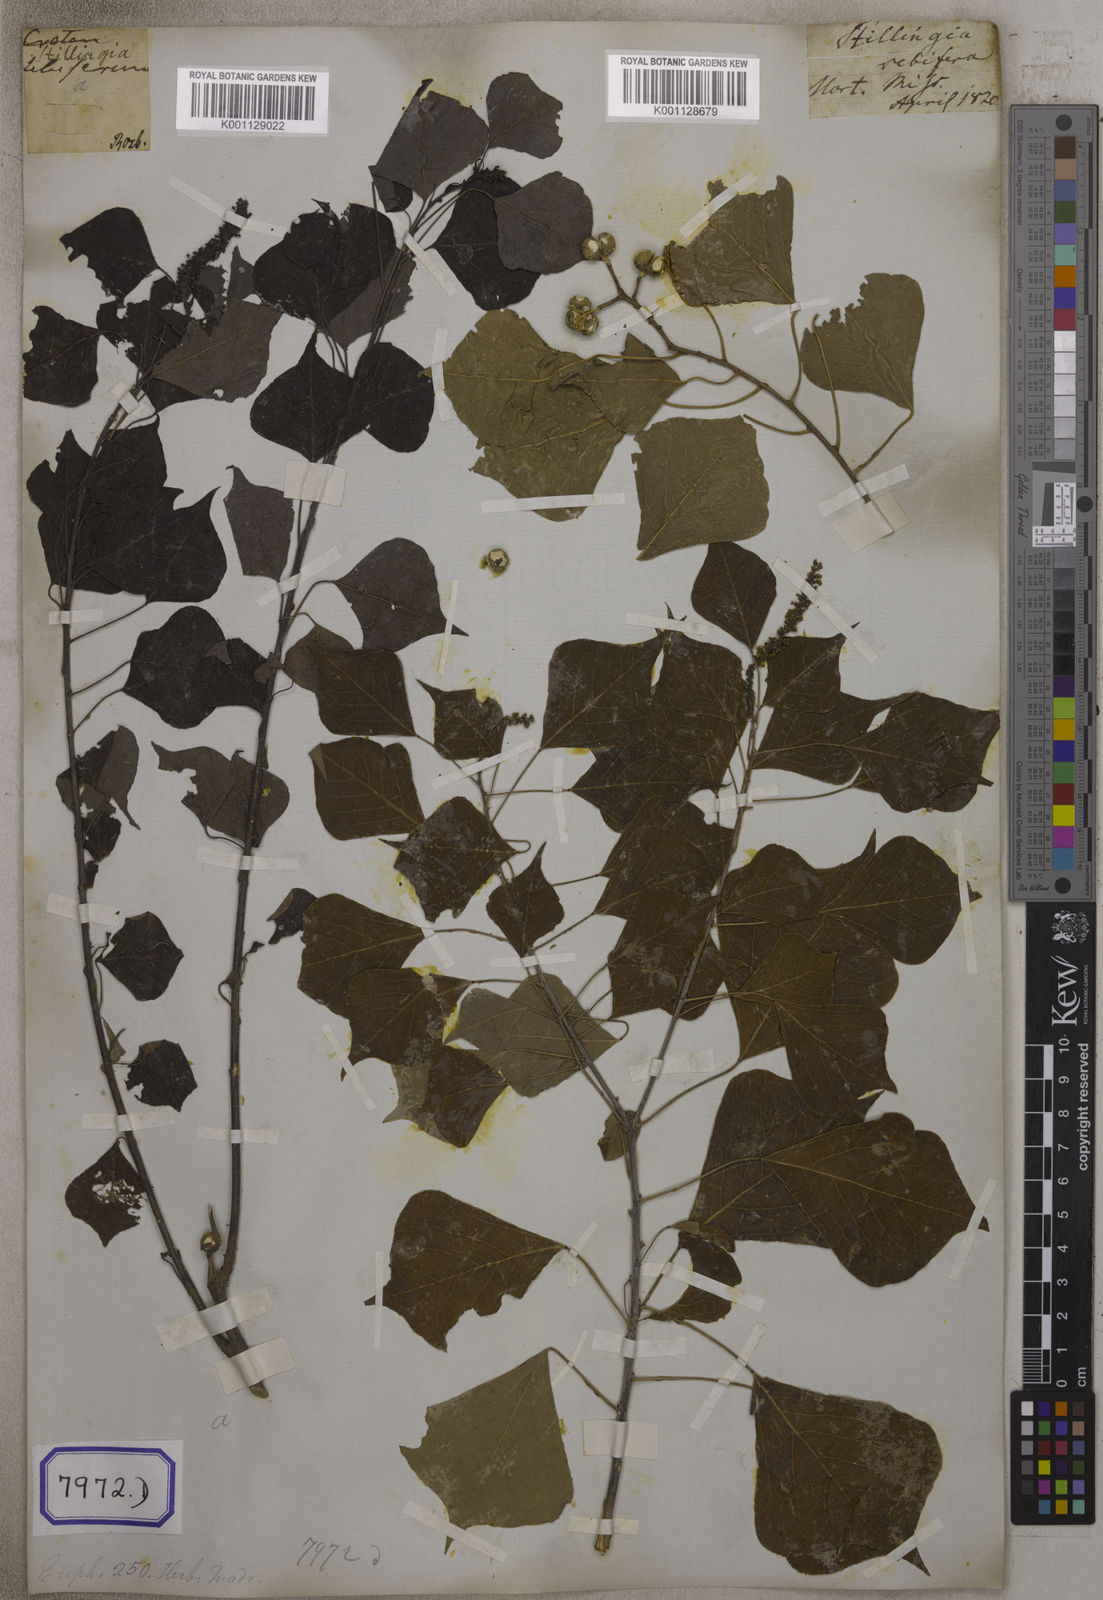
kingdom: Plantae
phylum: Tracheophyta
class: Magnoliopsida
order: Malpighiales
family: Euphorbiaceae
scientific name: Euphorbiaceae
